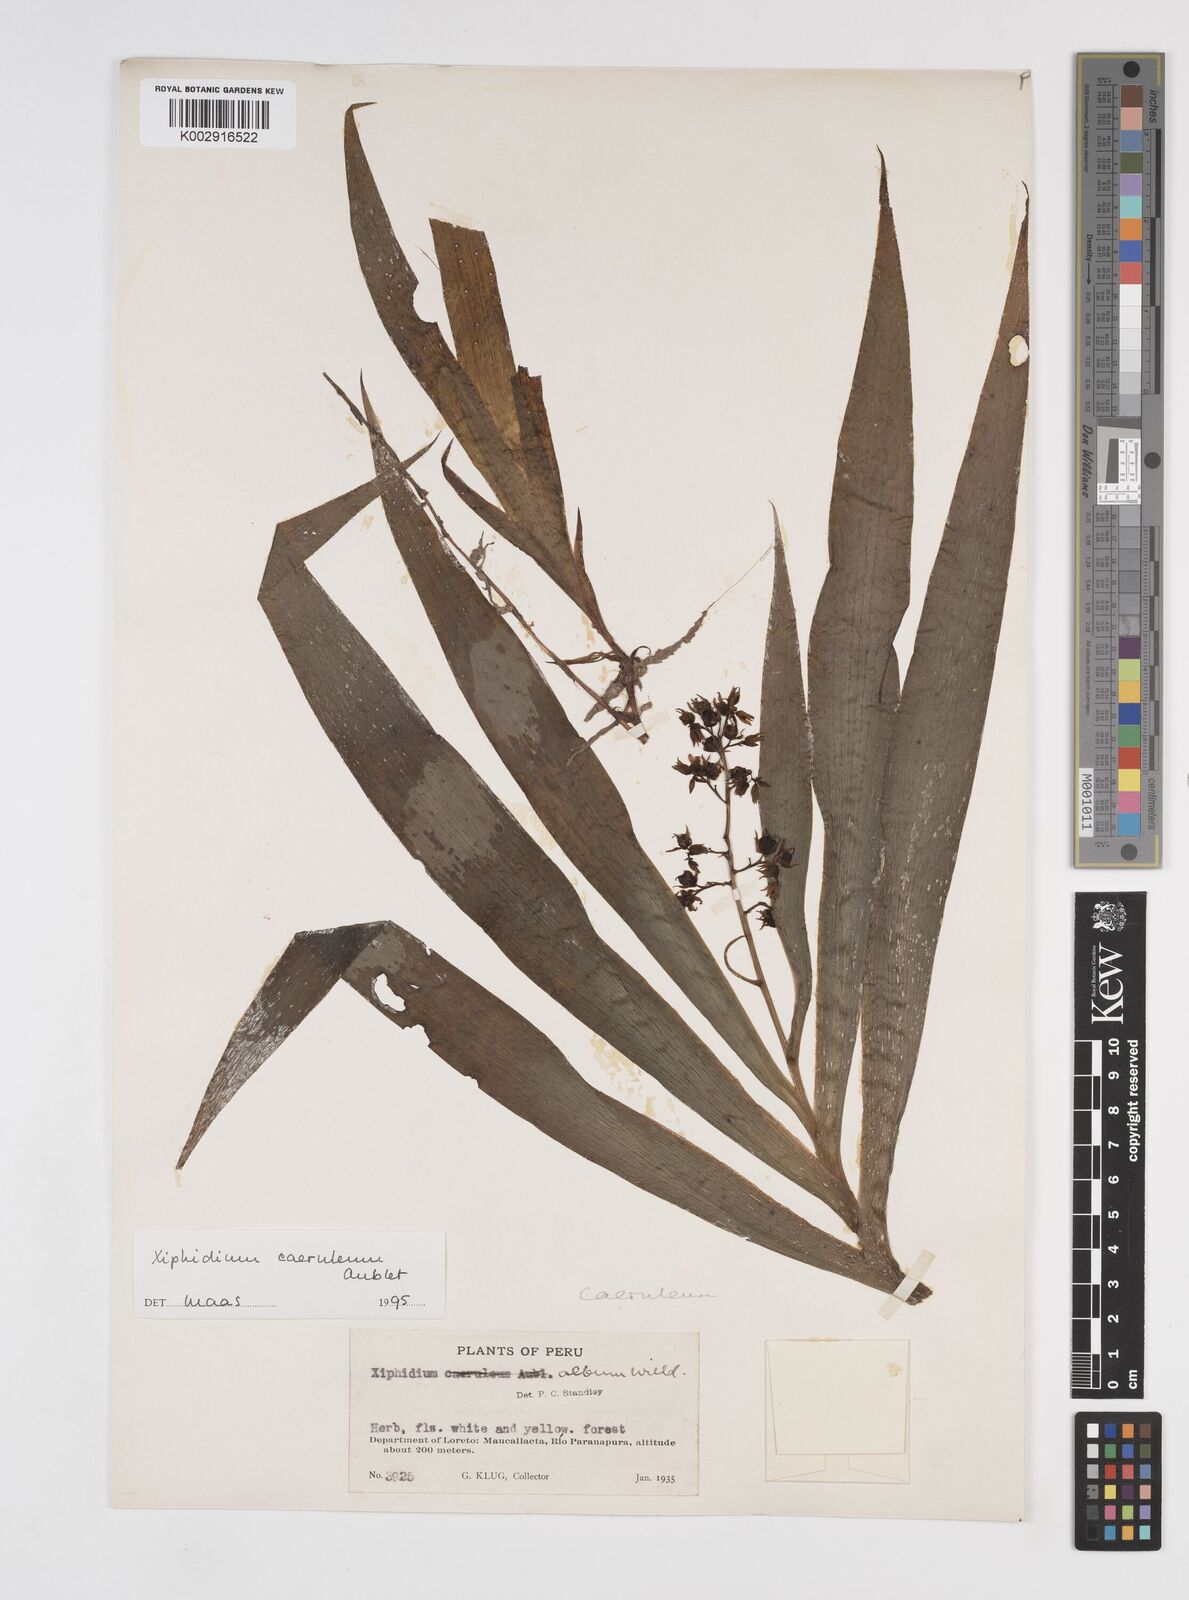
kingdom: Plantae
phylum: Tracheophyta
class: Liliopsida
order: Commelinales
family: Haemodoraceae
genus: Xiphidium
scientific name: Xiphidium caeruleum
